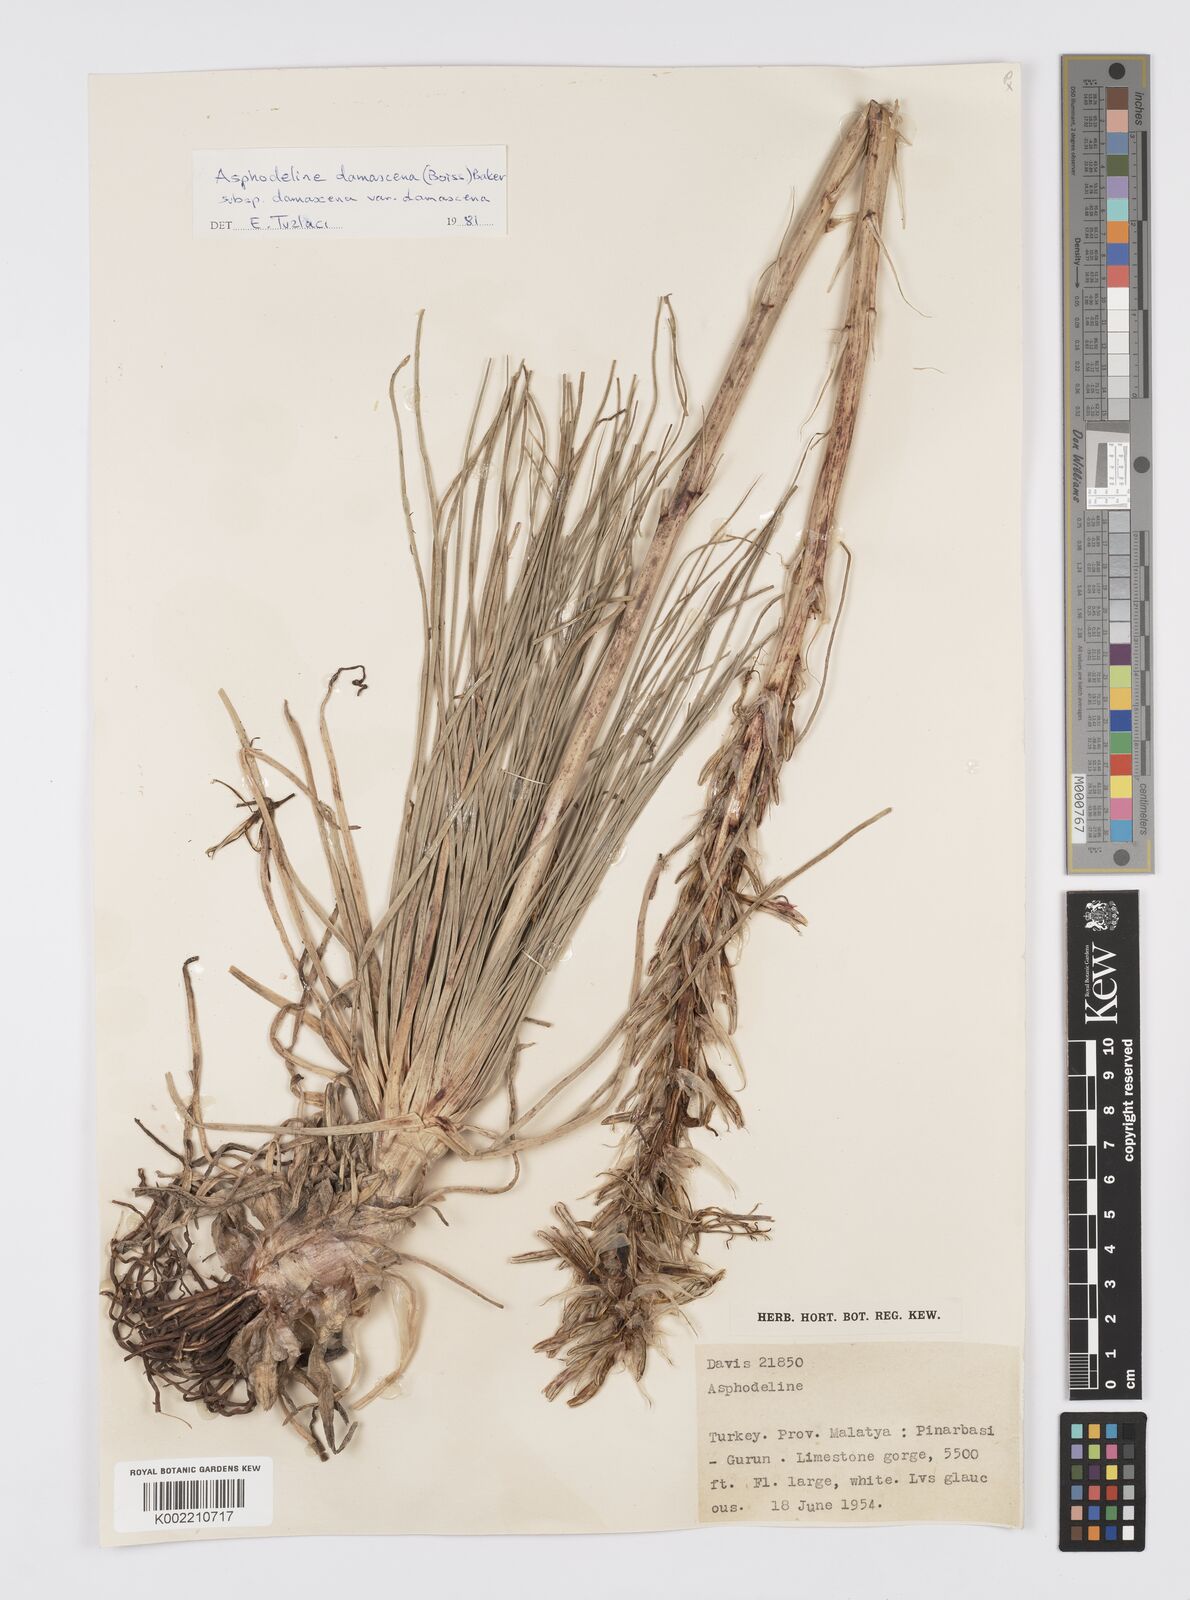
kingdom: Plantae
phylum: Tracheophyta
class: Liliopsida
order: Asparagales
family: Asphodelaceae
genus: Asphodeline
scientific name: Asphodeline damascena
